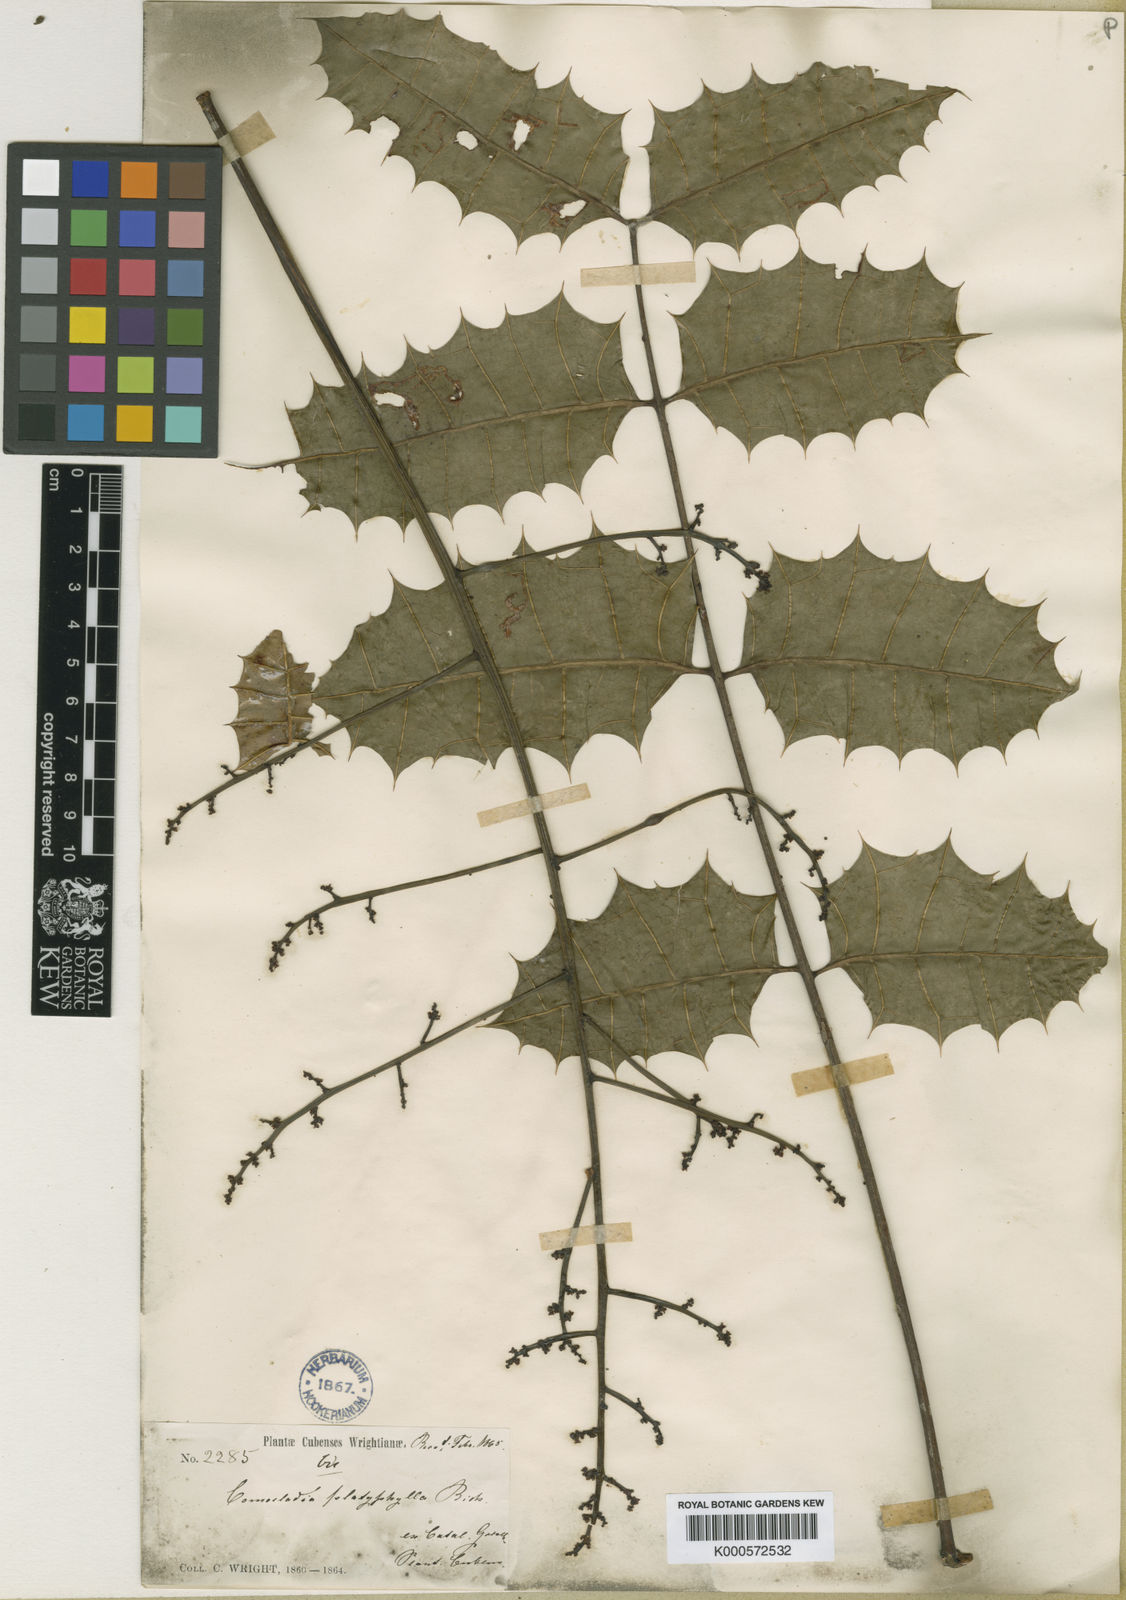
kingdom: Plantae
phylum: Tracheophyta
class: Magnoliopsida
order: Sapindales
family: Anacardiaceae
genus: Comocladia
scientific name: Comocladia platyphylla
